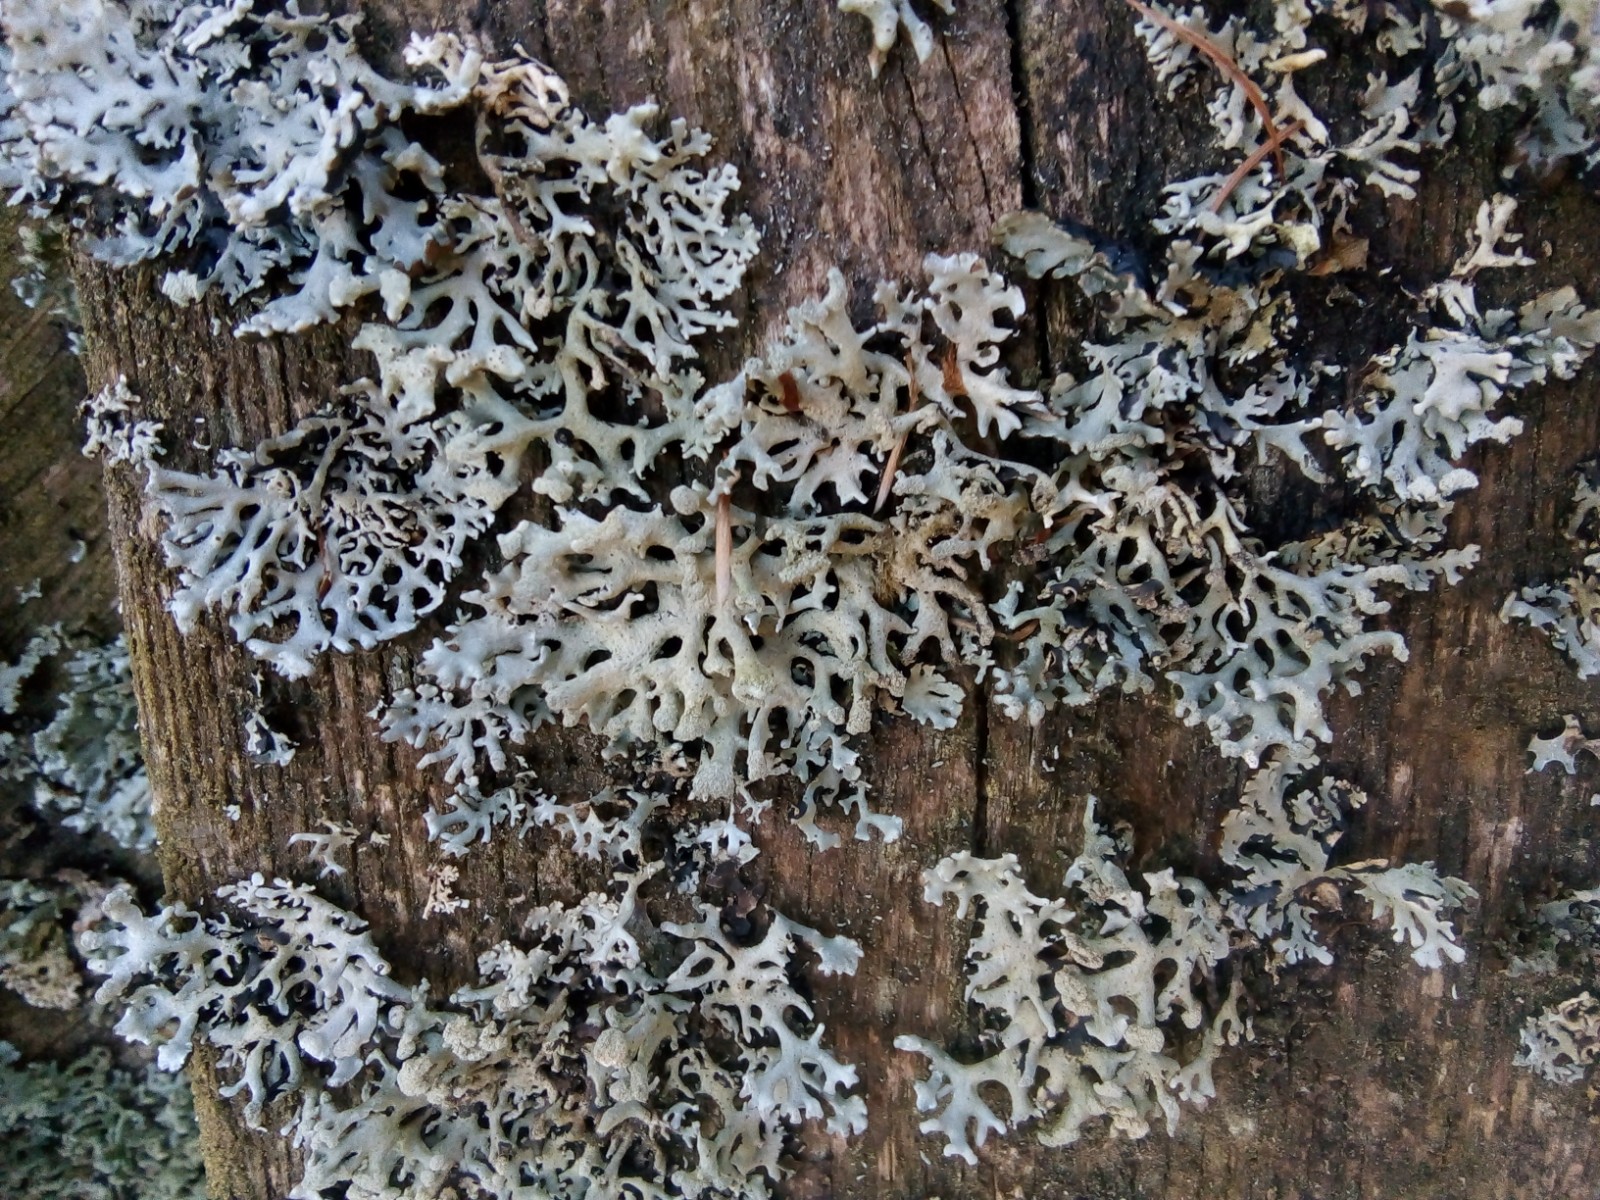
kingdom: Fungi
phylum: Ascomycota
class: Lecanoromycetes
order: Lecanorales
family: Parmeliaceae
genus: Hypogymnia
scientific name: Hypogymnia tubulosa
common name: finger-kvistlav
